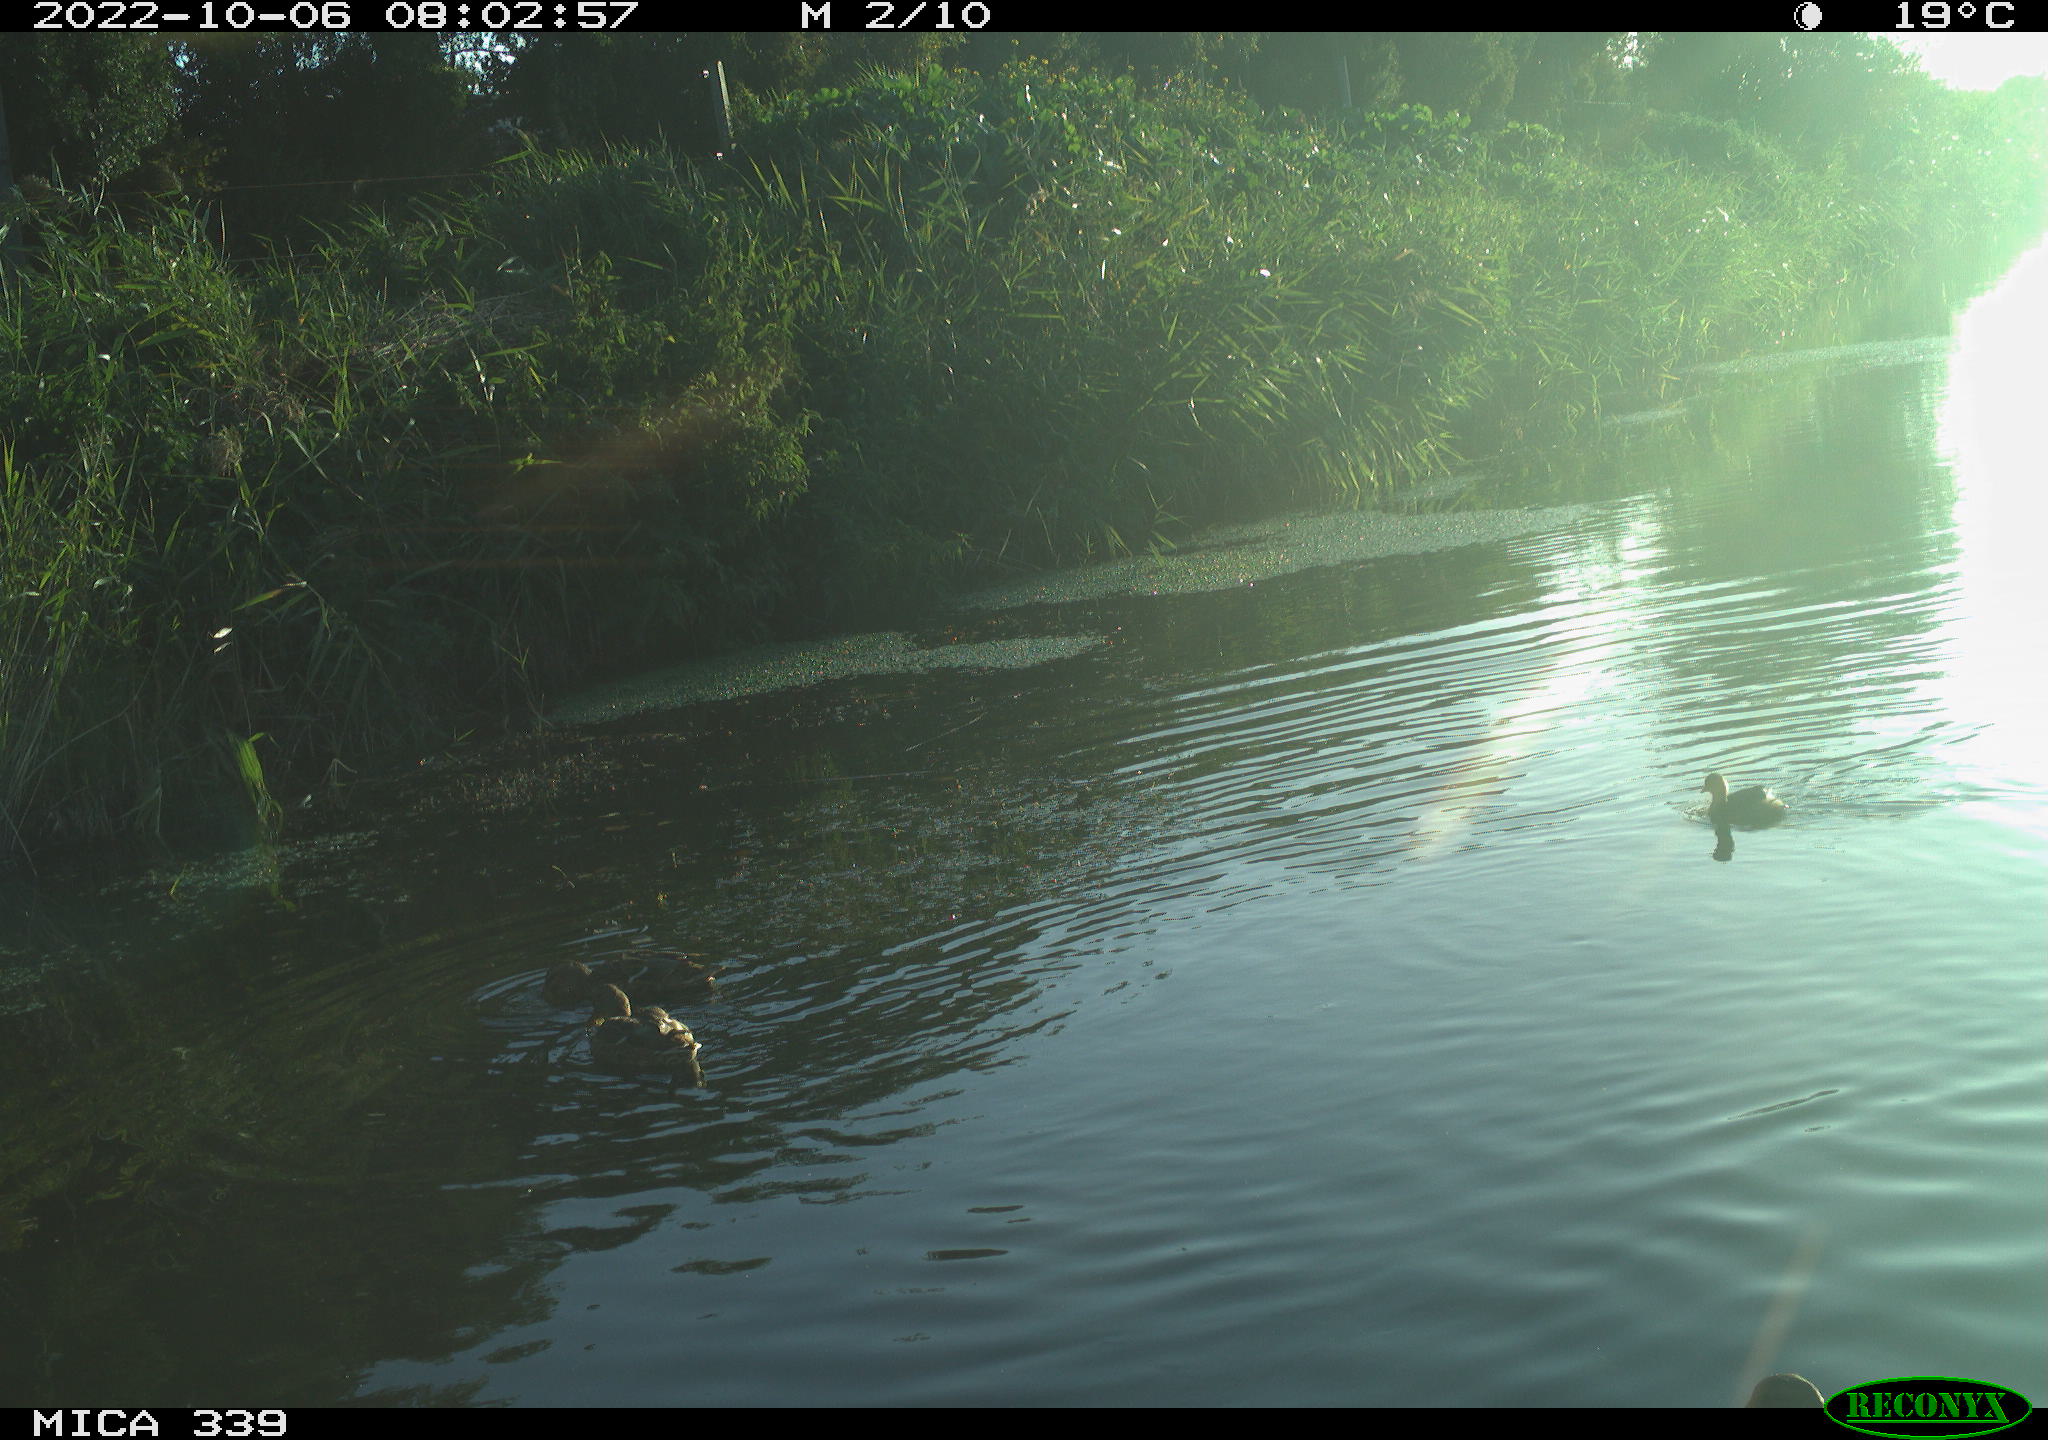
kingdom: Animalia
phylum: Chordata
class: Aves
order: Anseriformes
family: Anatidae
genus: Anas
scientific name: Anas platyrhynchos
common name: Mallard
